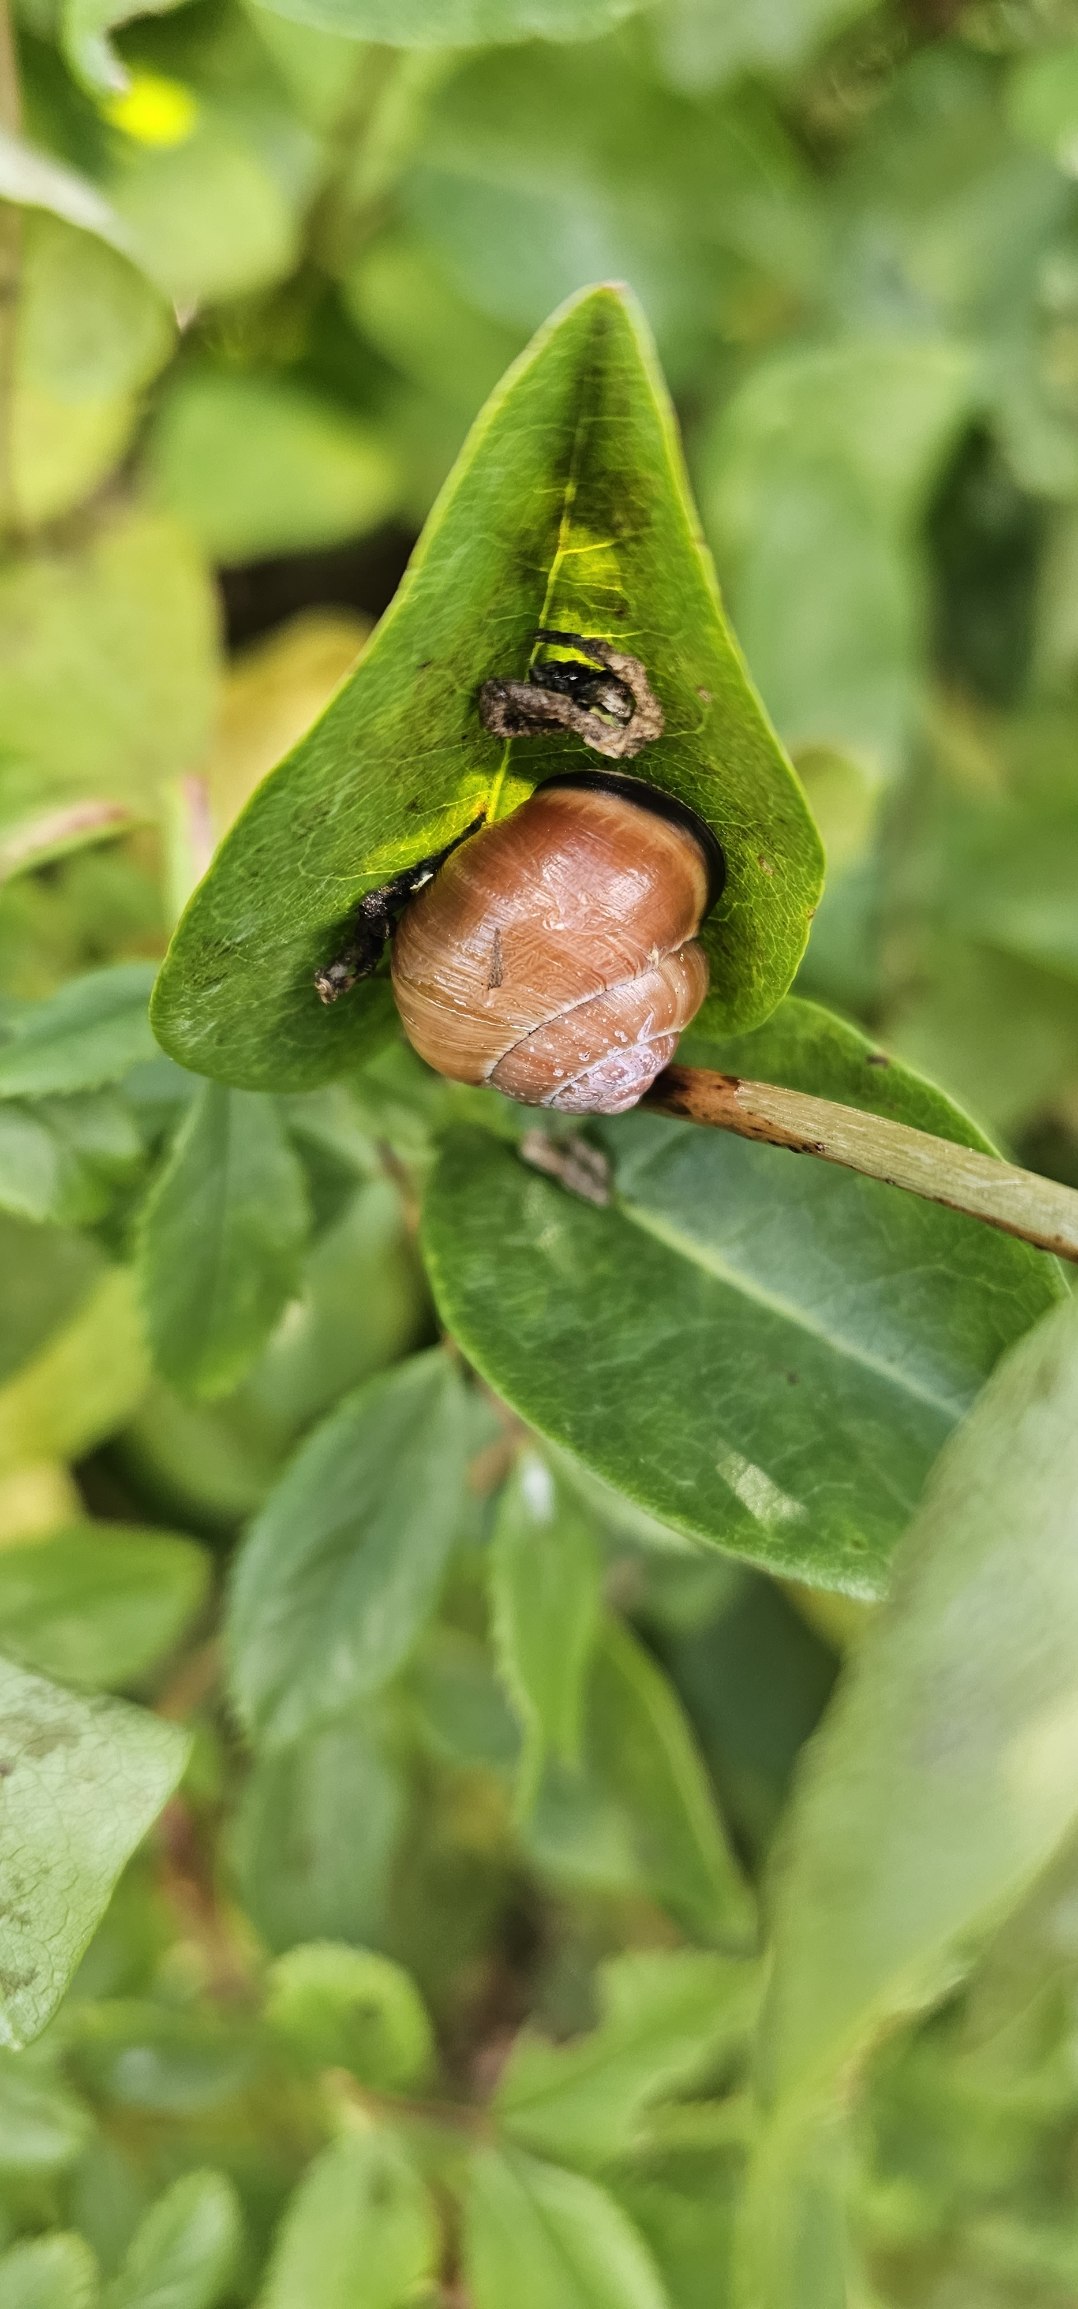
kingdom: Animalia
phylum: Mollusca
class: Gastropoda
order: Stylommatophora
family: Helicidae
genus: Cepaea
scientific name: Cepaea nemoralis
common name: Lundsnegl
